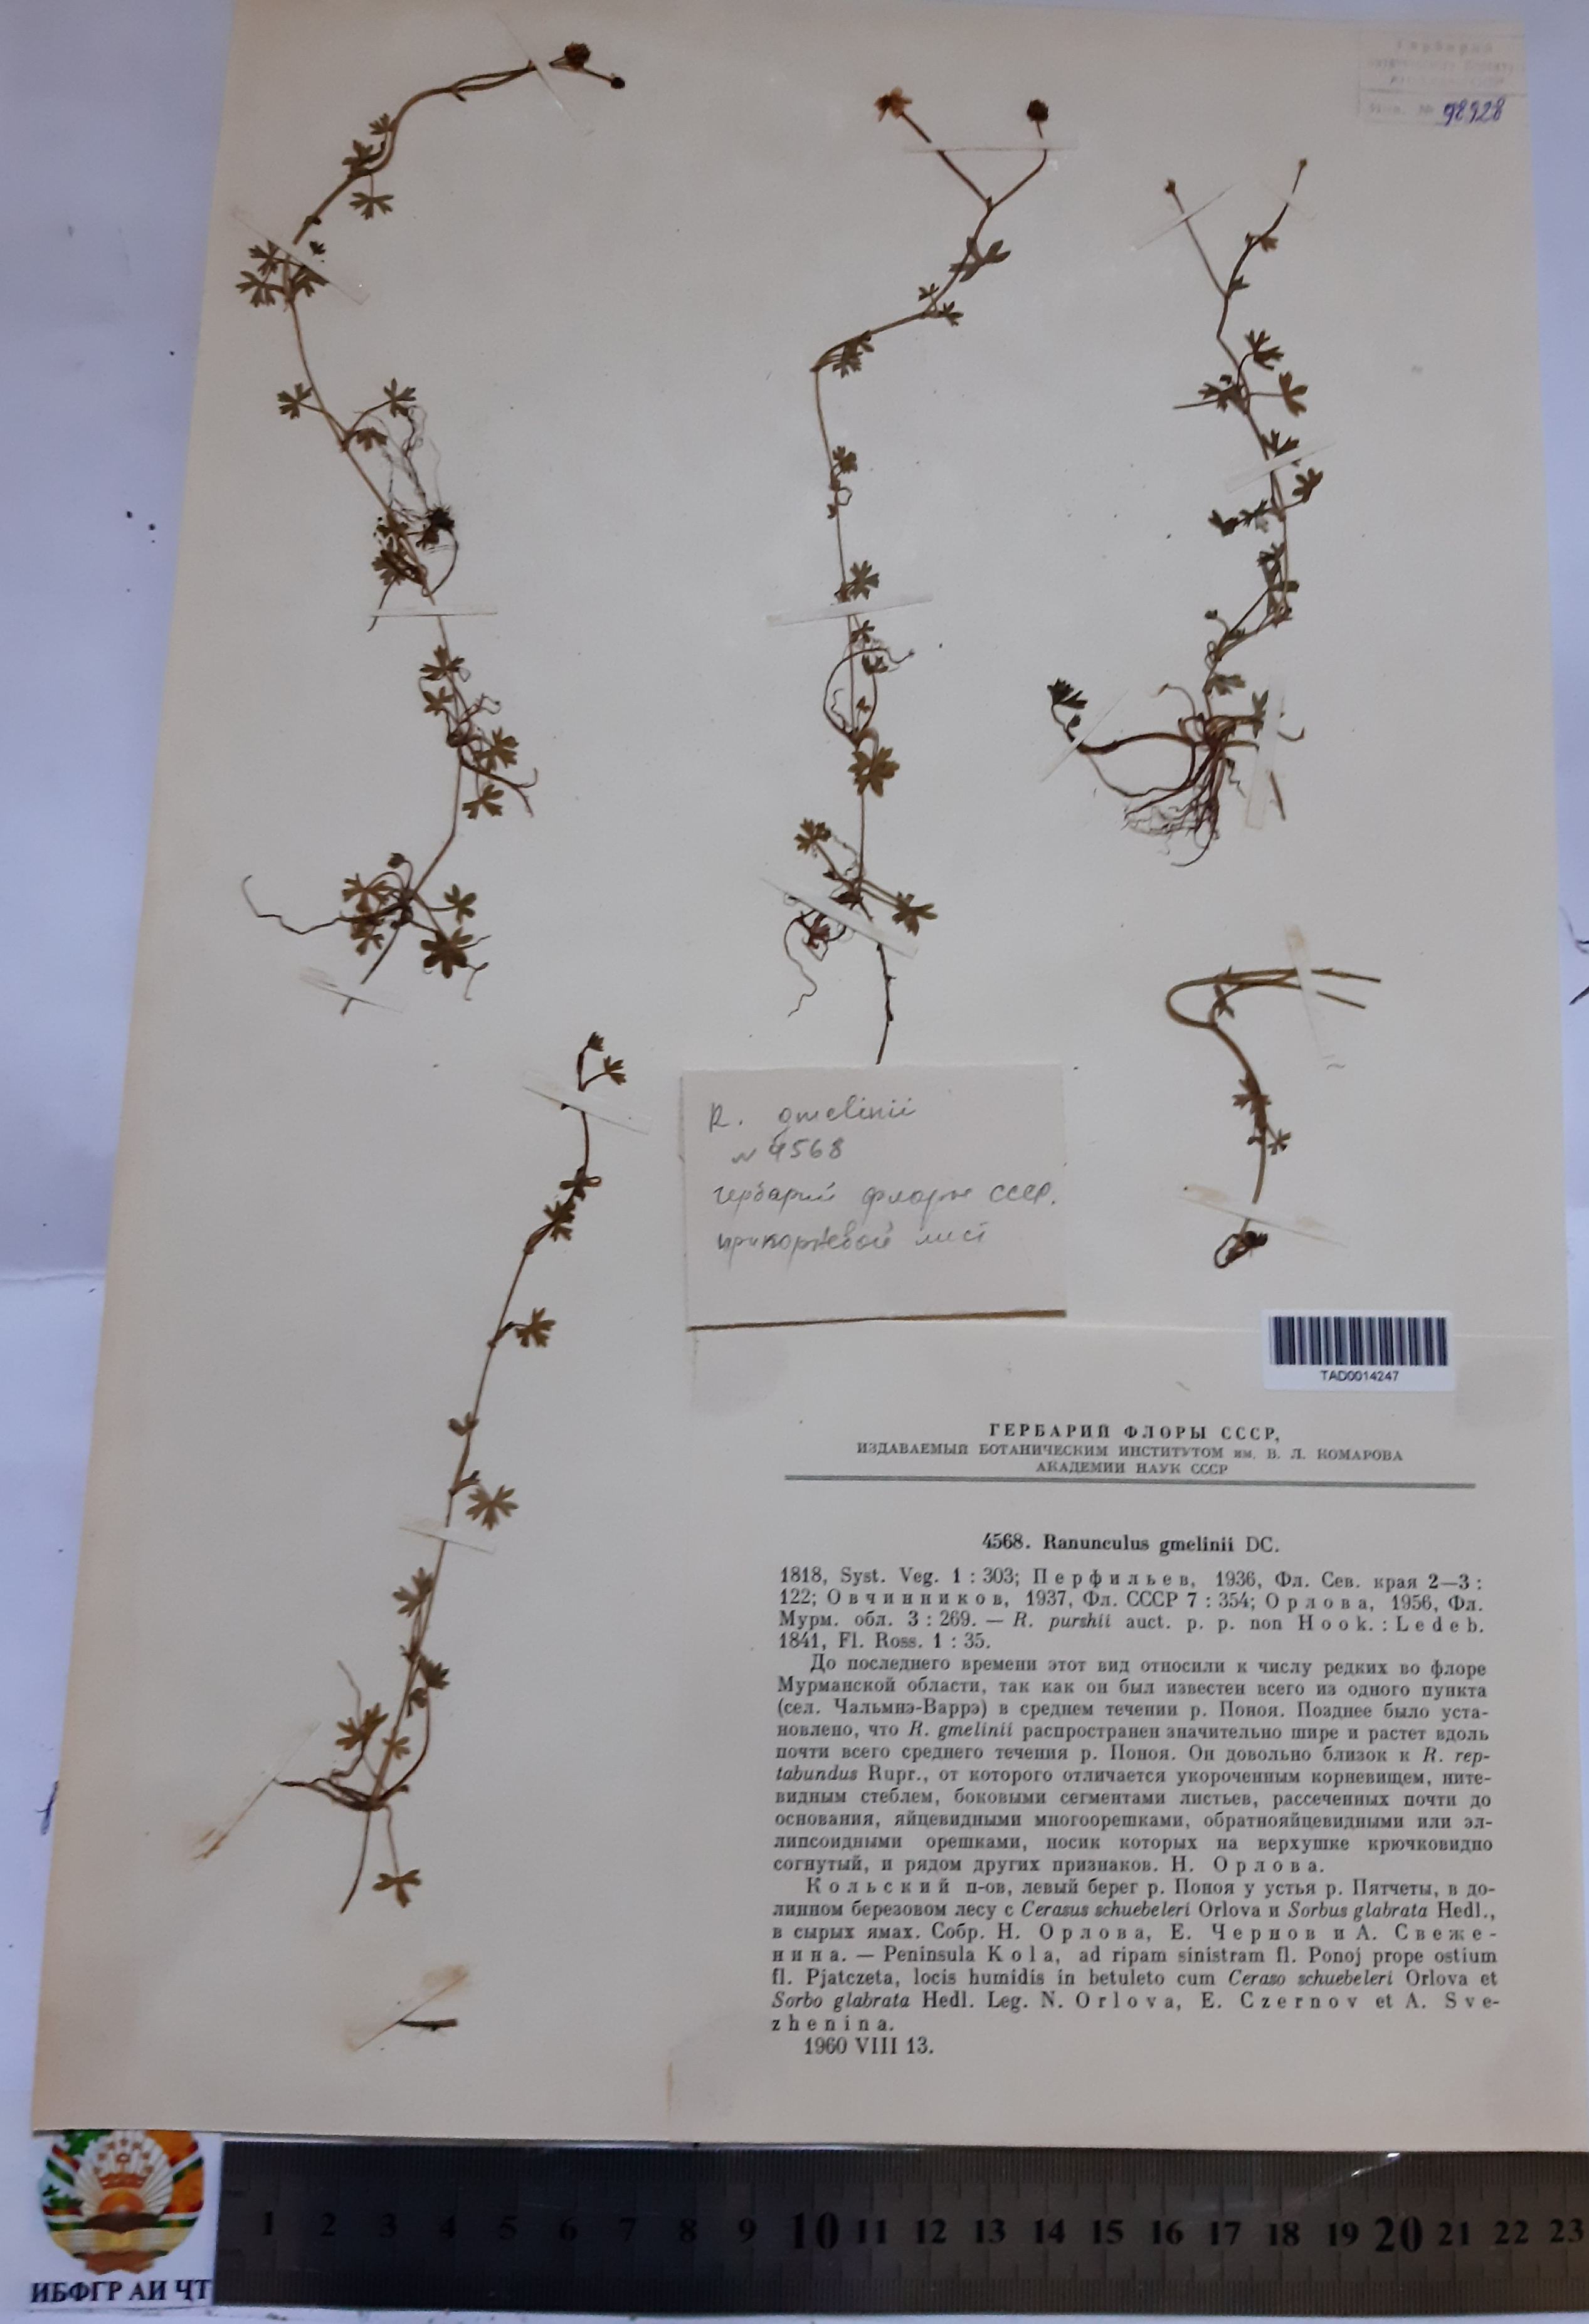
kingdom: Plantae
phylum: Tracheophyta
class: Magnoliopsida
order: Ranunculales
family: Ranunculaceae
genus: Ranunculus
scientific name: Ranunculus gmelinii
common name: Gmelin's buttercup
